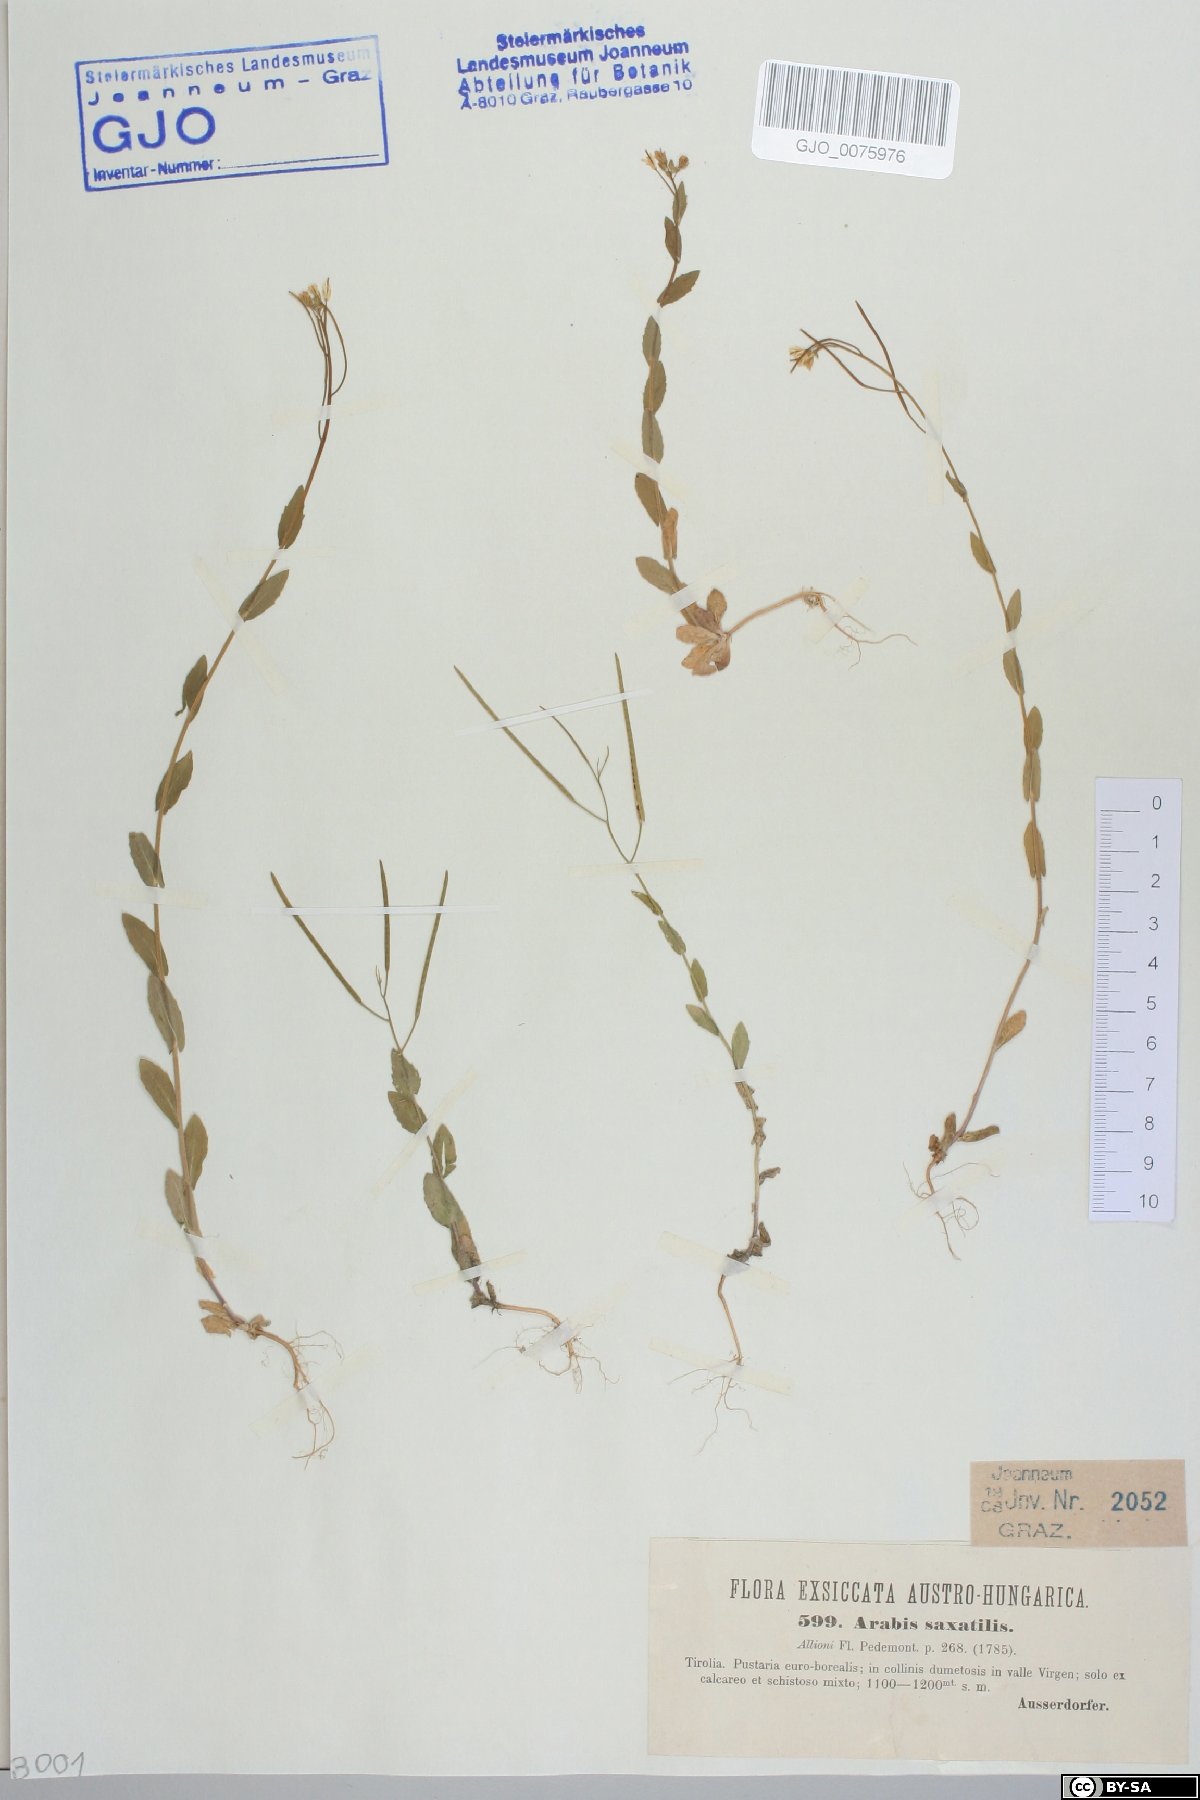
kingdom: Plantae
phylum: Tracheophyta
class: Magnoliopsida
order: Brassicales
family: Brassicaceae
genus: Arabis
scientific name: Arabis nova
